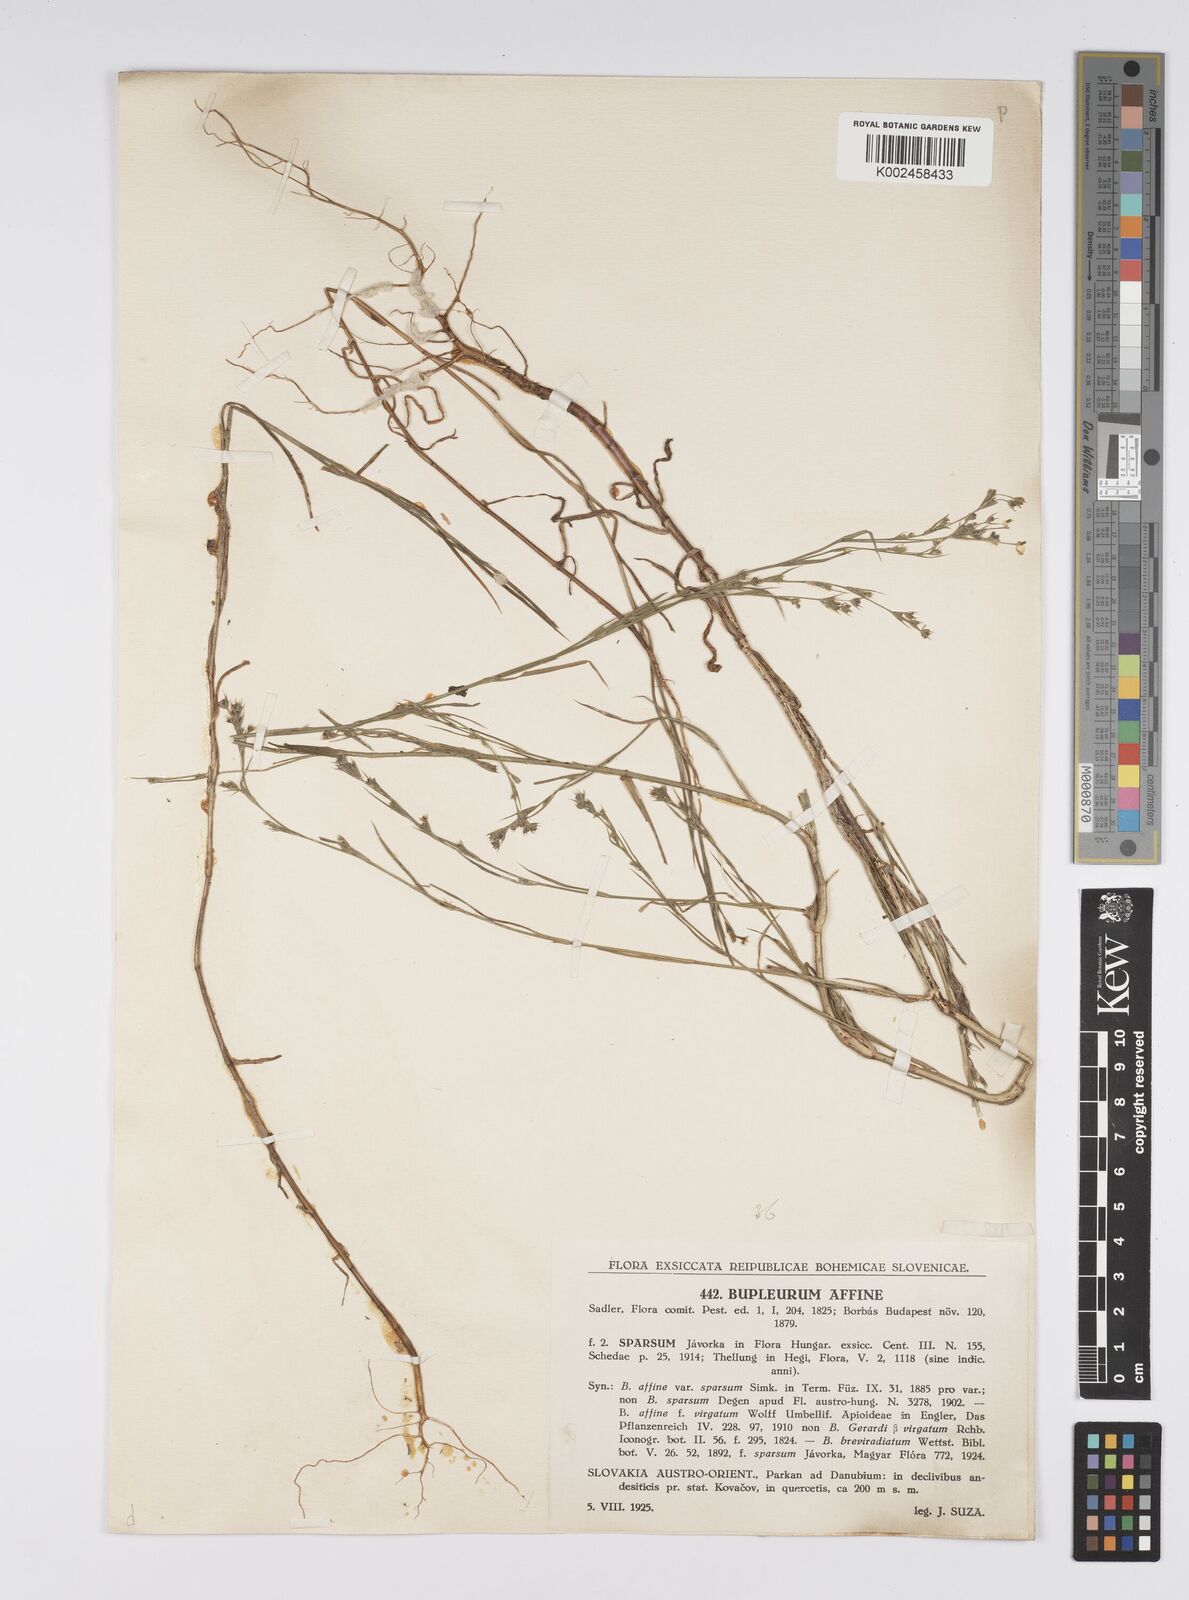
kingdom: Plantae
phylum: Tracheophyta
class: Magnoliopsida
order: Apiales
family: Apiaceae
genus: Bupleurum
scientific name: Bupleurum affine
